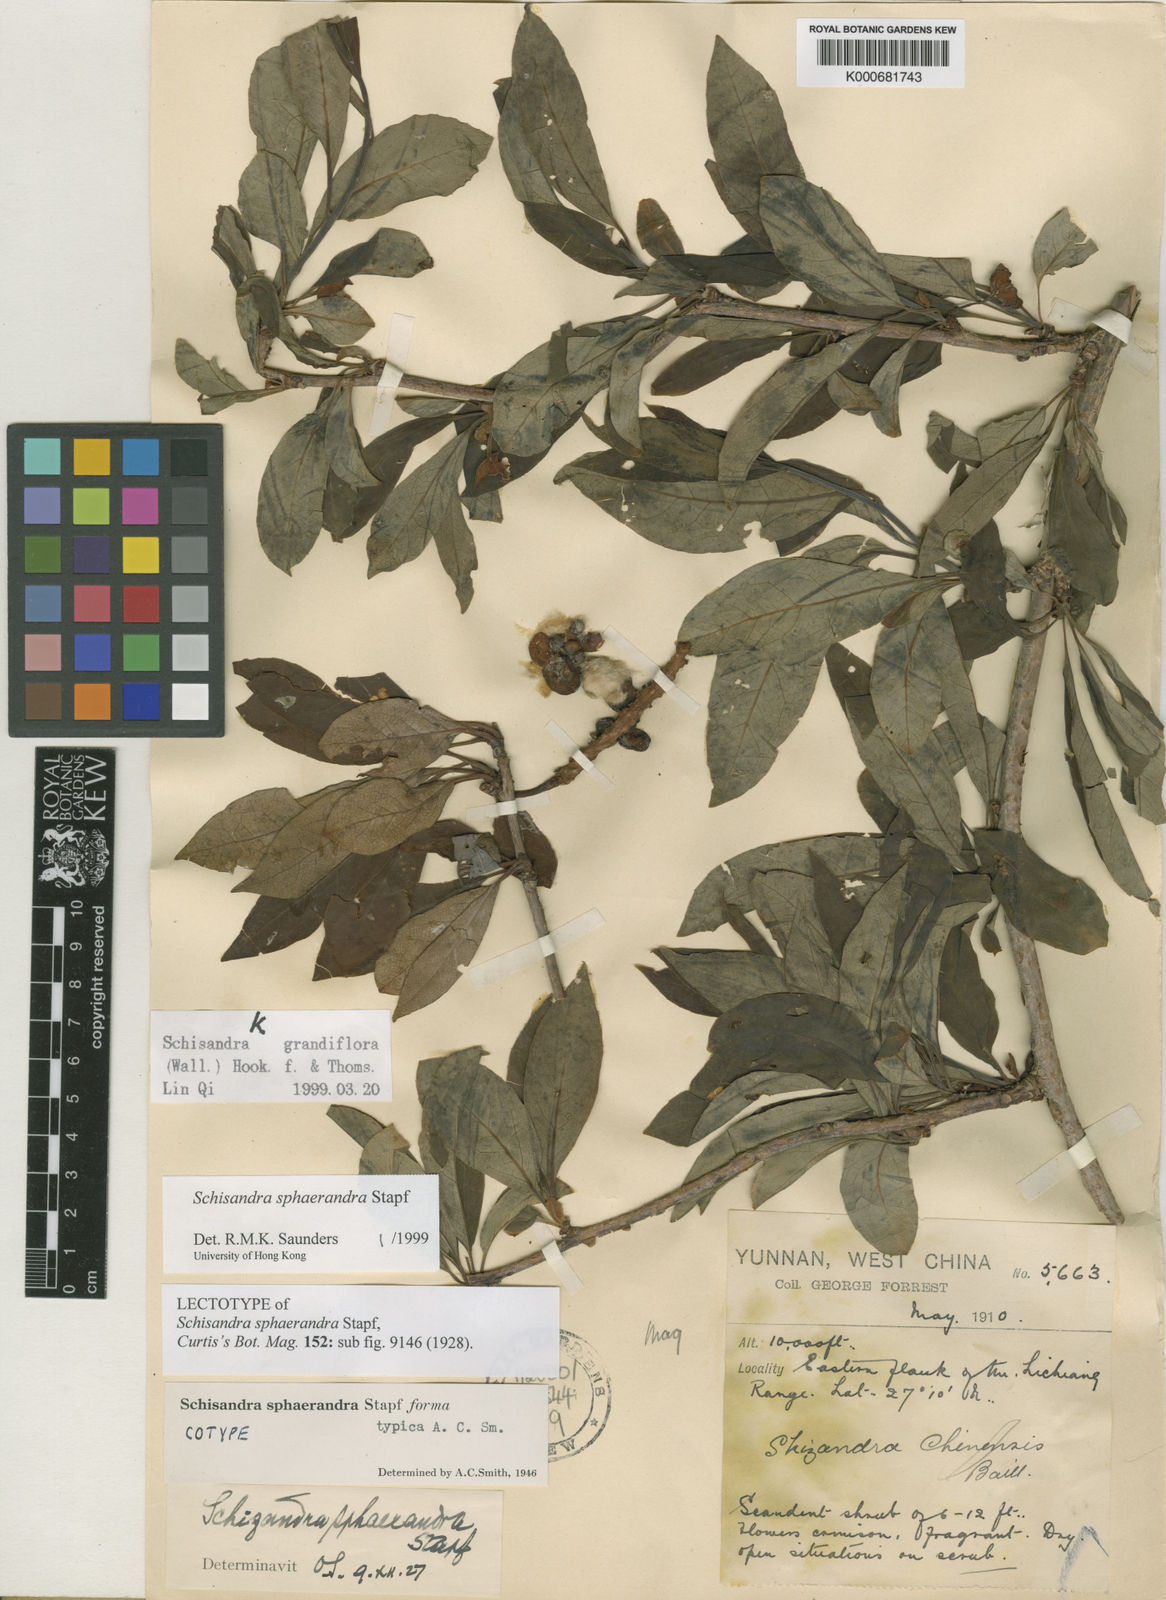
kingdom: Plantae
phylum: Tracheophyta
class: Magnoliopsida
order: Austrobaileyales
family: Schisandraceae
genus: Schisandra
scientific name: Schisandra sphaerandra
